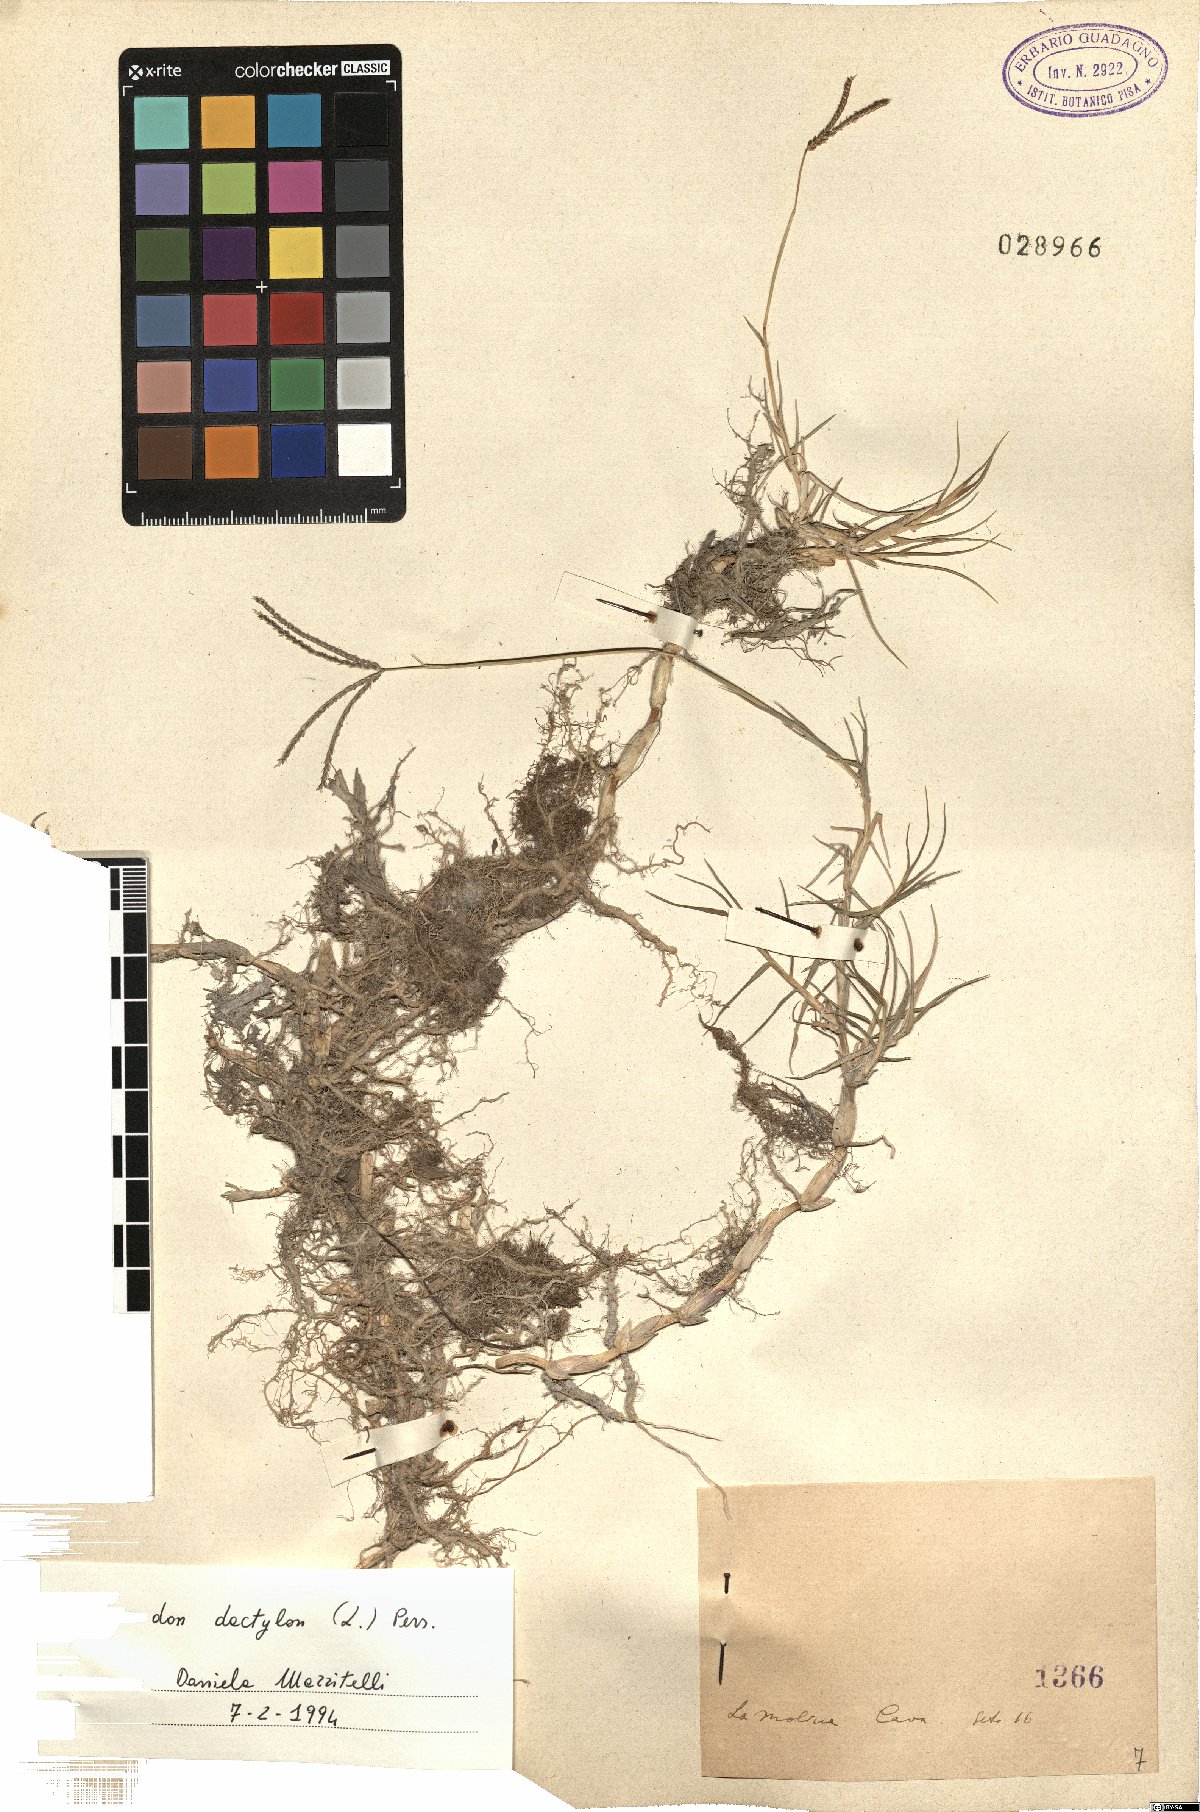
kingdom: Plantae
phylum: Tracheophyta
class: Liliopsida
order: Poales
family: Poaceae
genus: Cynodon
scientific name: Cynodon dactylon
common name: Bermuda grass
